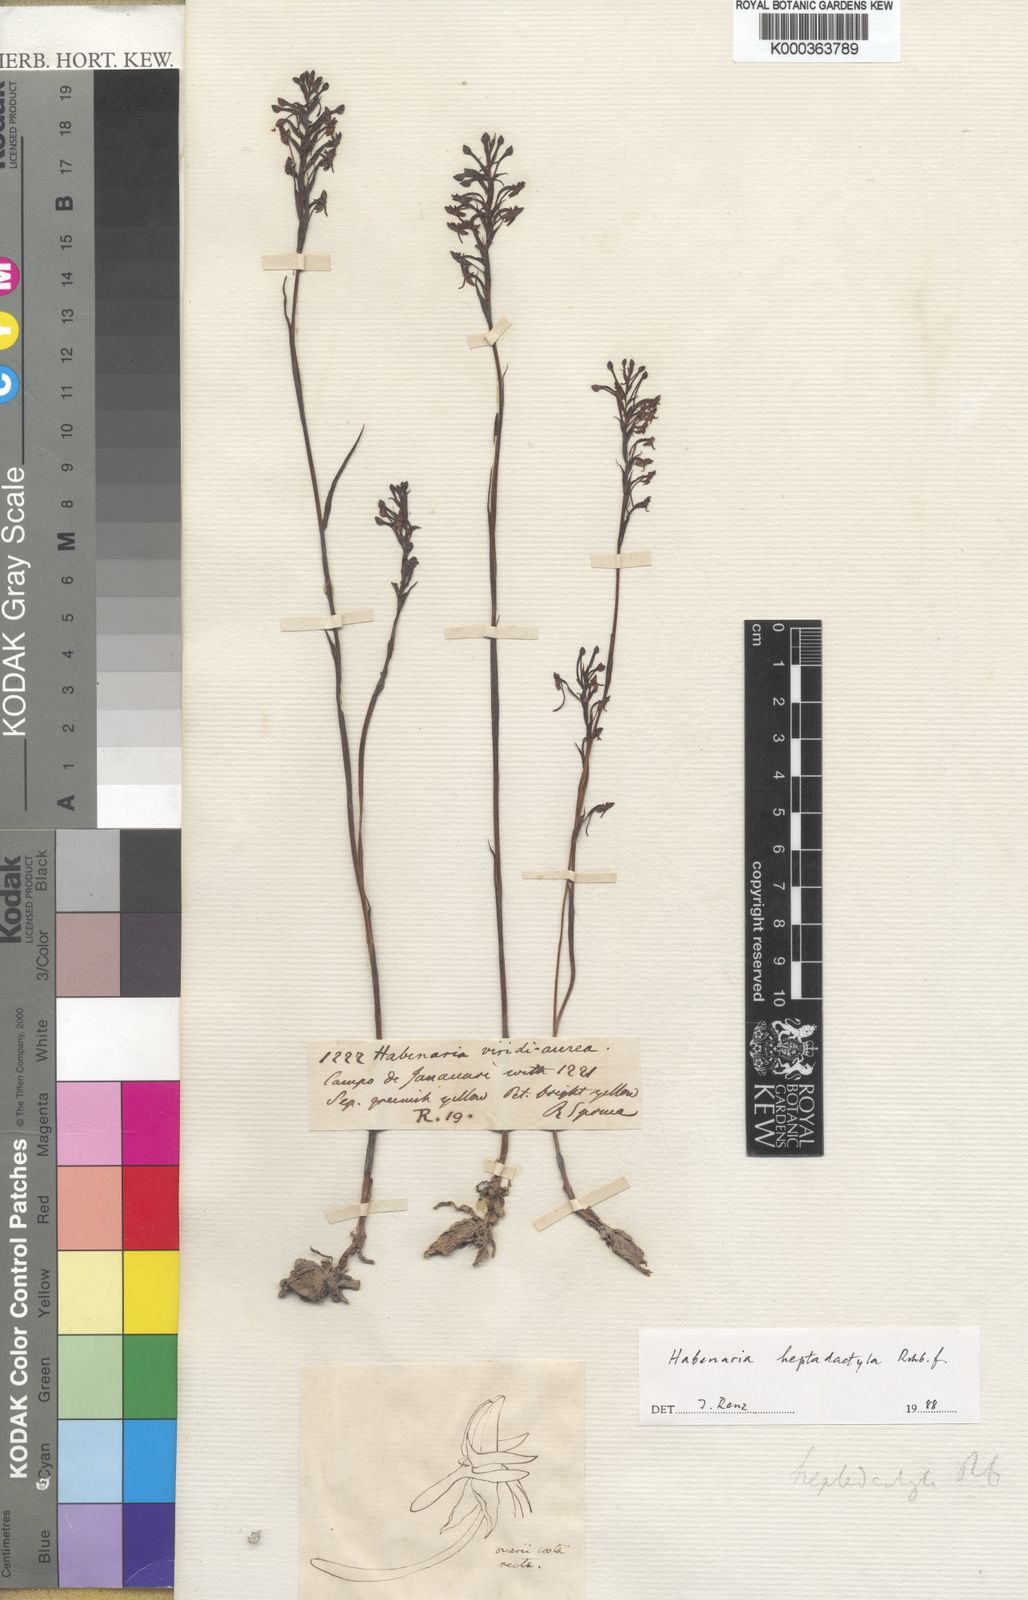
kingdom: Plantae
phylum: Tracheophyta
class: Liliopsida
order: Asparagales
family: Orchidaceae
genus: Habenaria
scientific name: Habenaria heptadactyla
